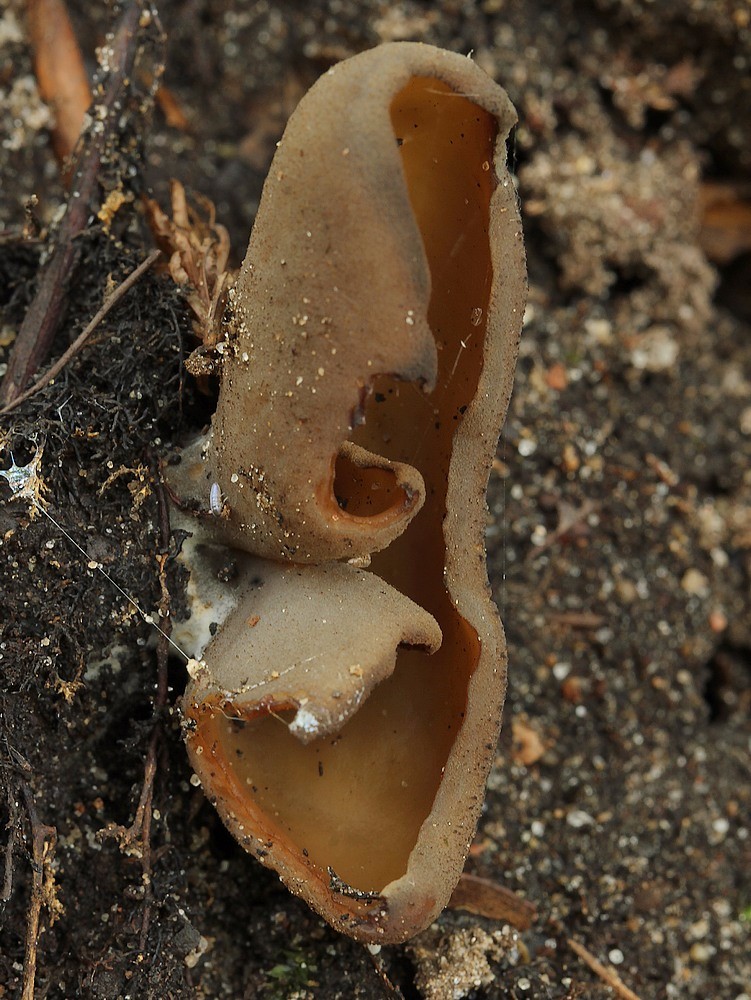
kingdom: Fungi
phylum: Ascomycota
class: Pezizomycetes
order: Pezizales
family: Otideaceae
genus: Otidea
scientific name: Otidea bufonia
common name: brun ørebæger
